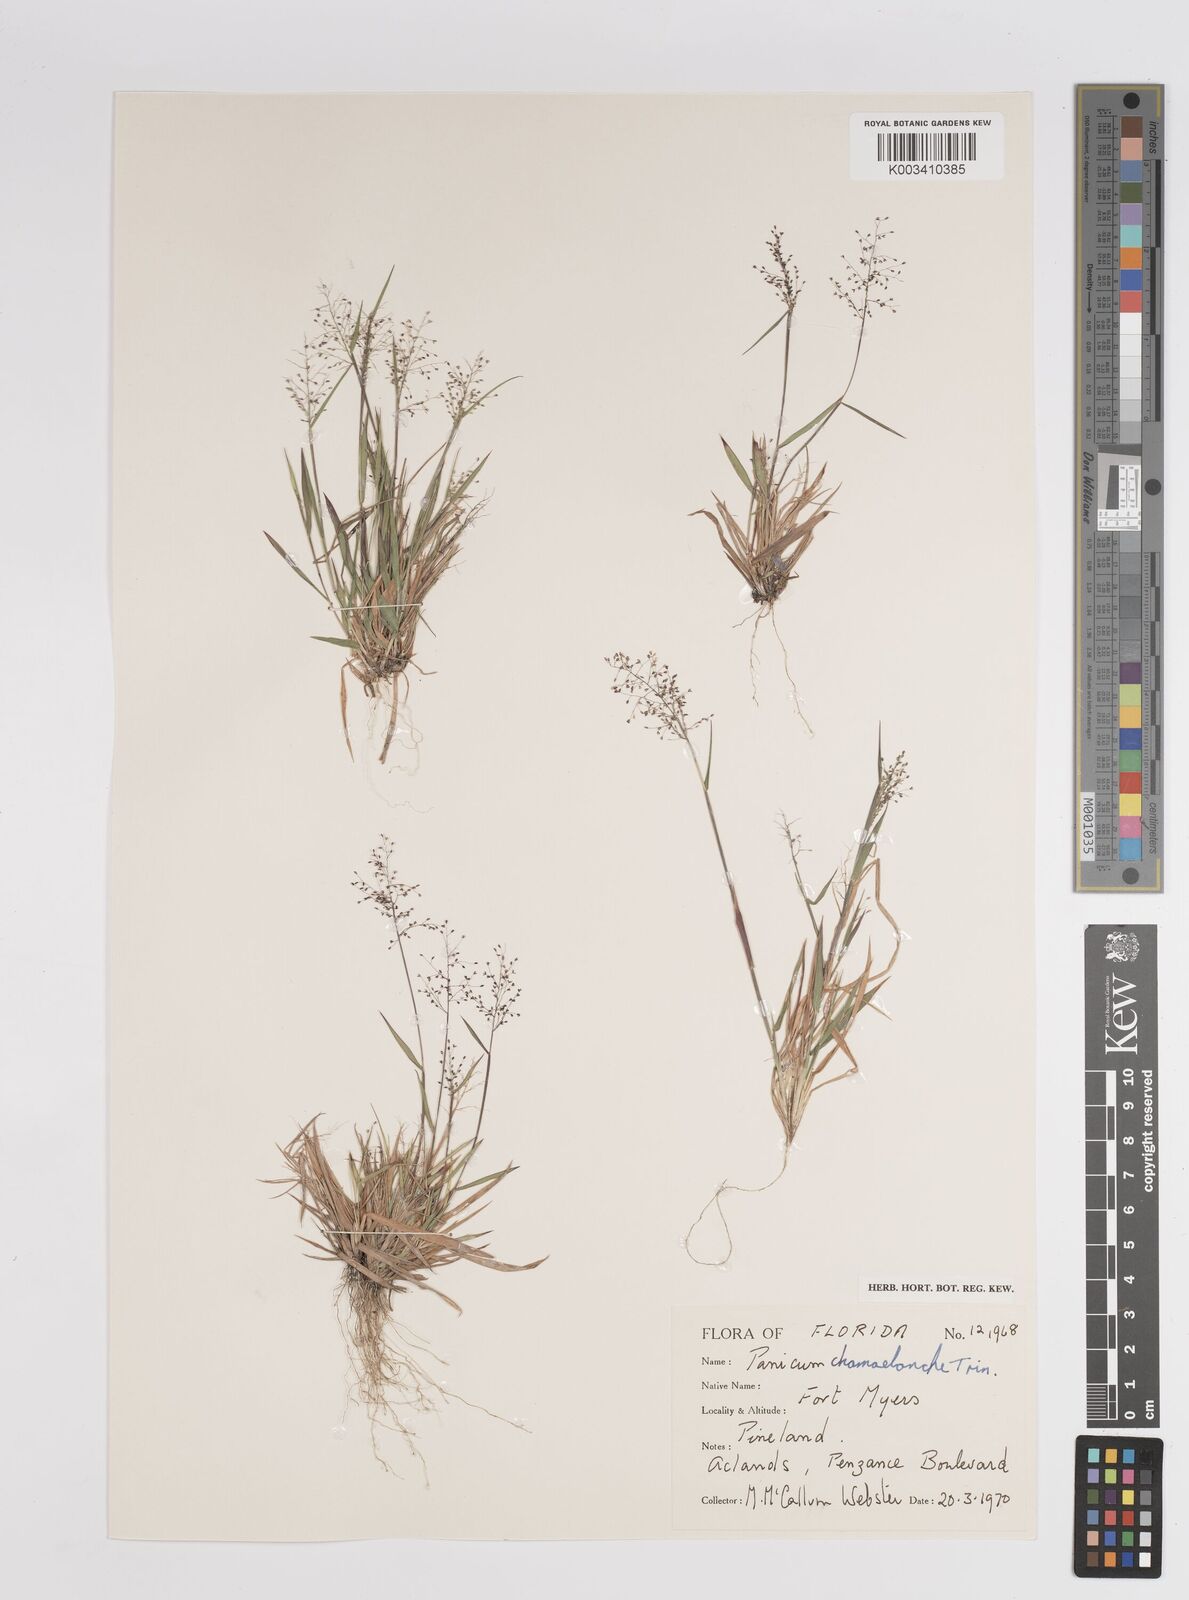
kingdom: Plantae
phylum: Tracheophyta
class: Liliopsida
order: Poales
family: Poaceae
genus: Dichanthelium
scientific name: Dichanthelium chamaelonche
